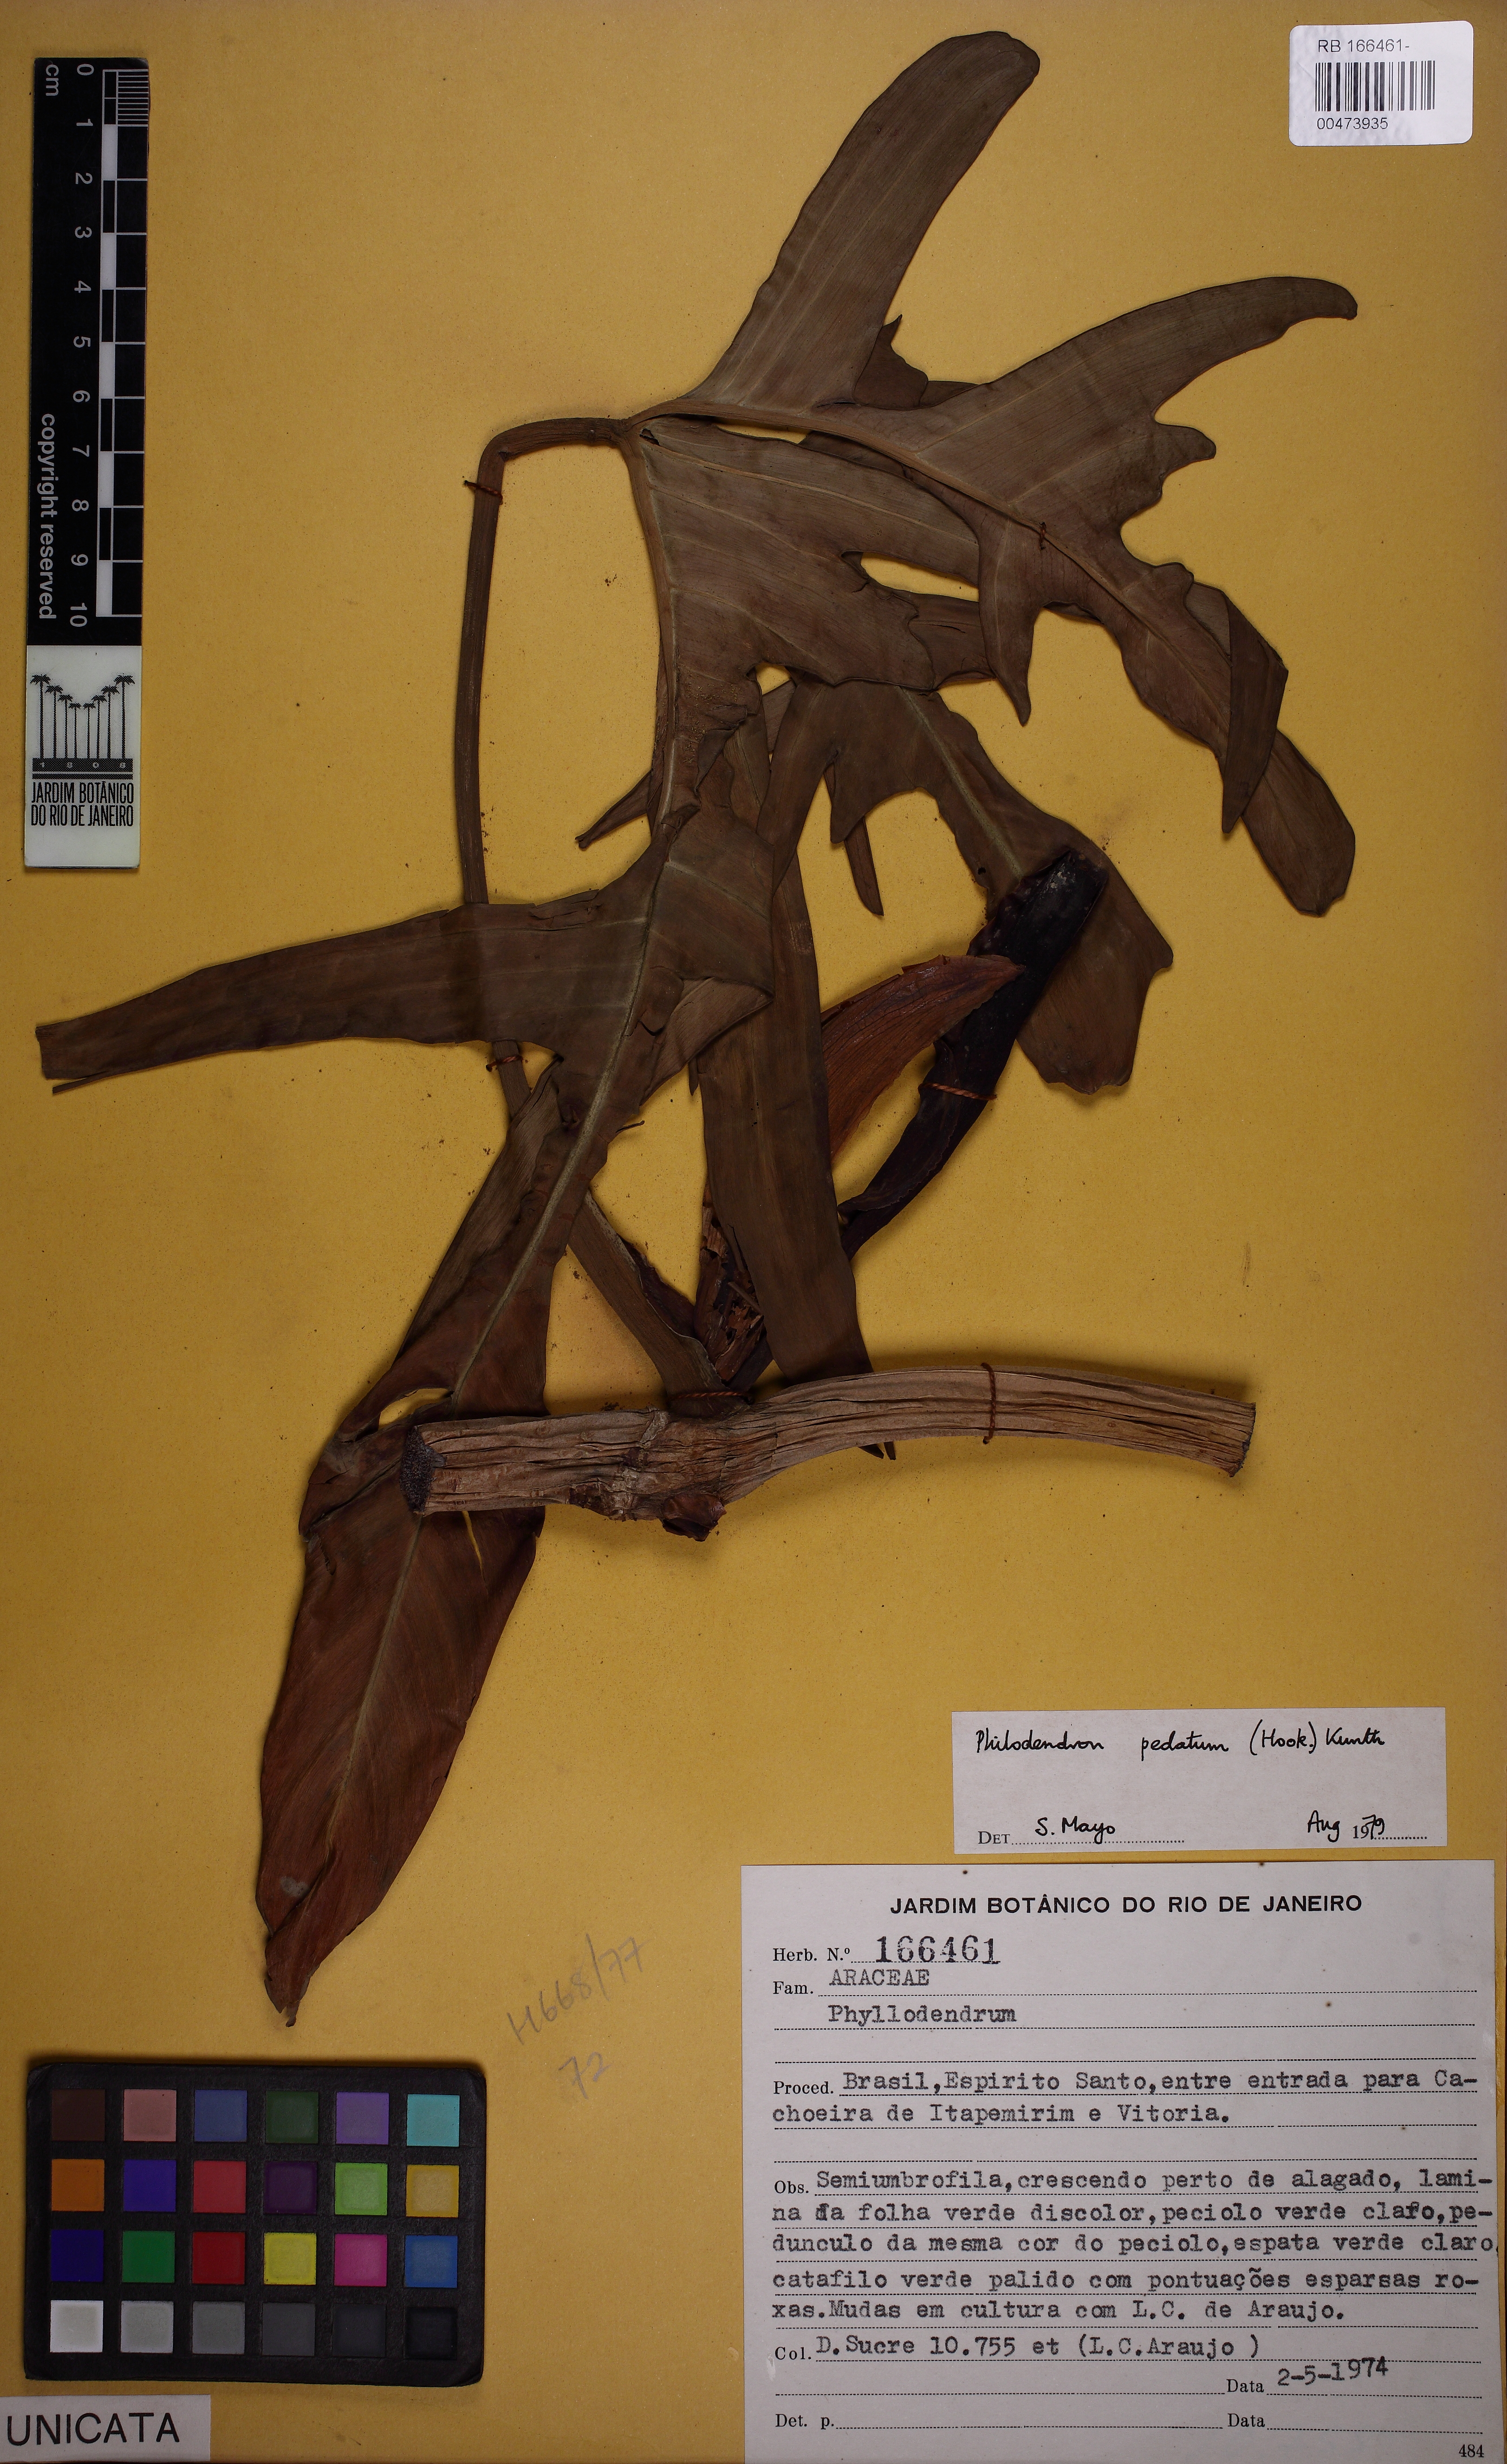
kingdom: Plantae
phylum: Tracheophyta
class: Liliopsida
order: Alismatales
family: Araceae
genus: Philodendron
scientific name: Philodendron pedatum
